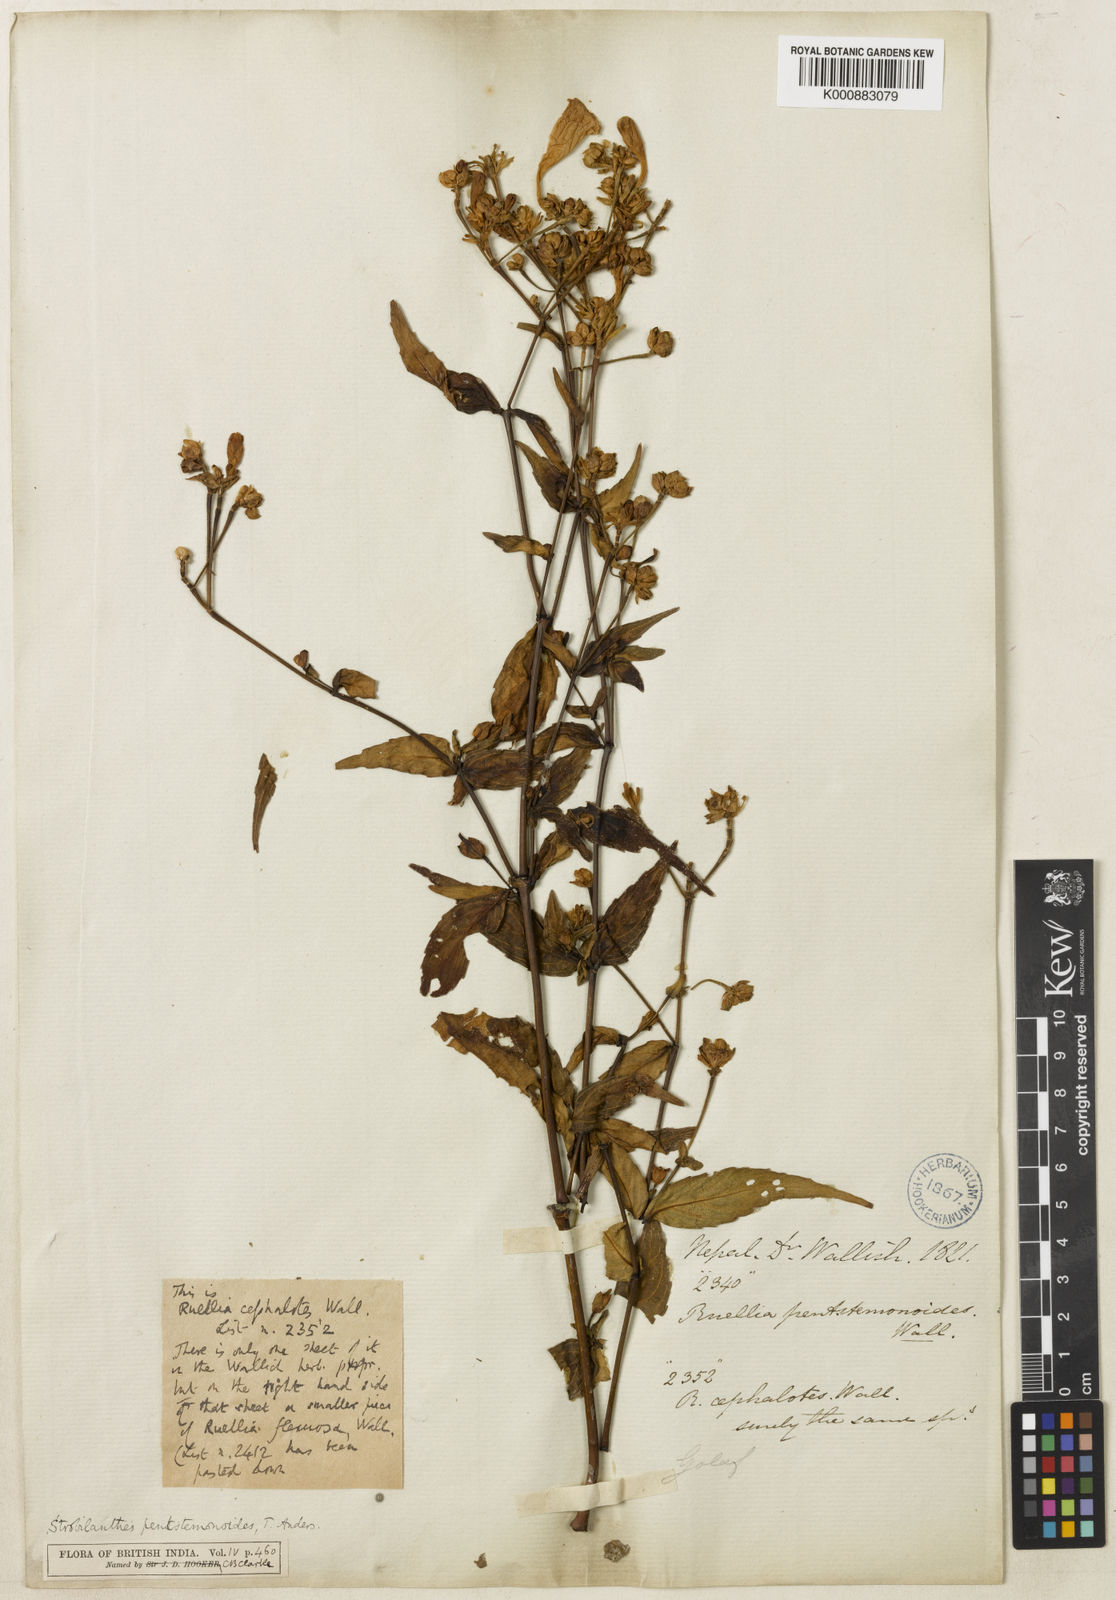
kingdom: Plantae
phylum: Tracheophyta
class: Magnoliopsida
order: Lamiales
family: Acanthaceae
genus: Strobilanthes
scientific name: Strobilanthes
